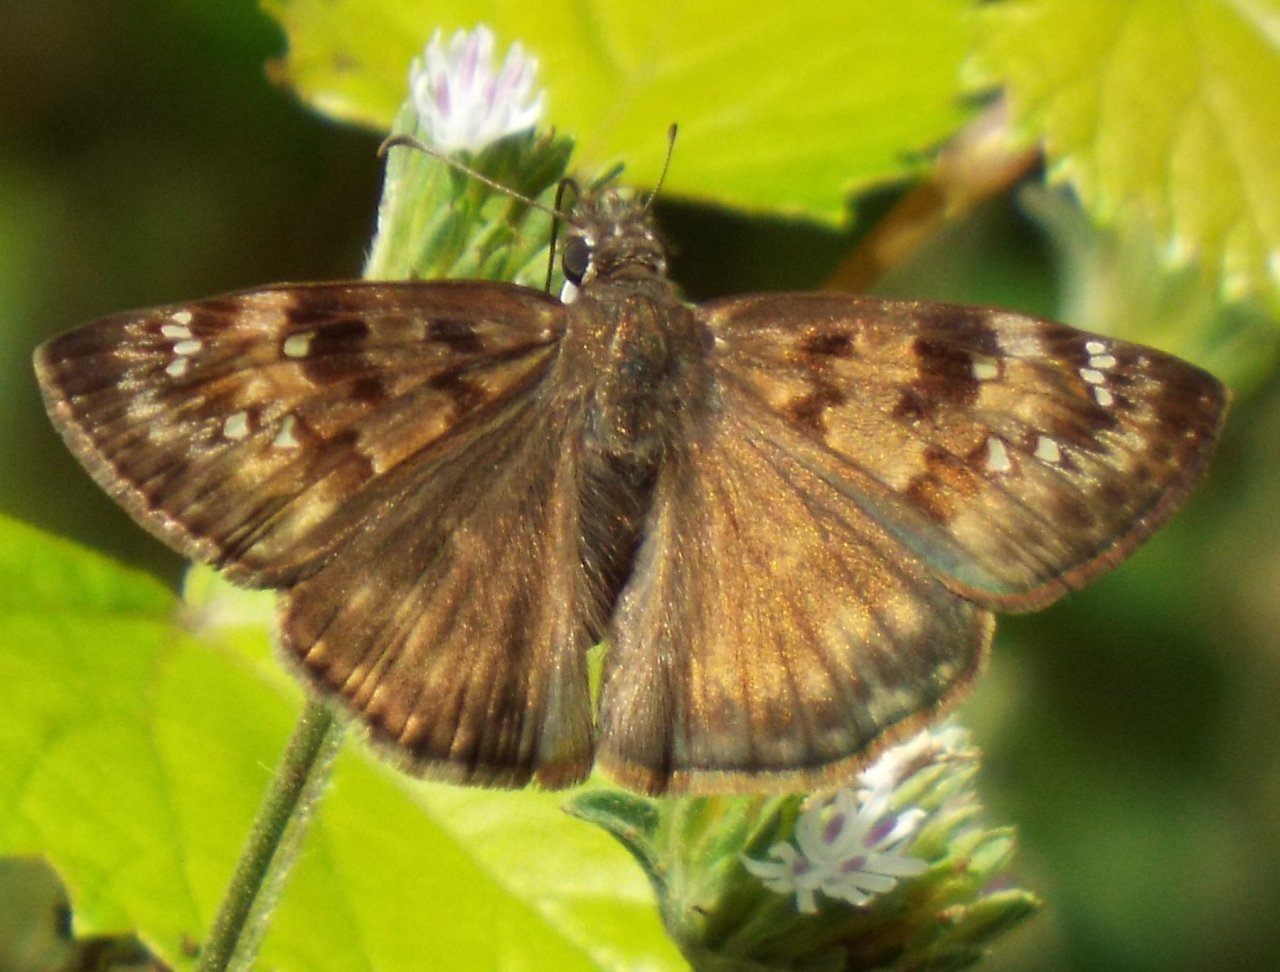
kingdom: Animalia
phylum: Arthropoda
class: Insecta
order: Lepidoptera
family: Hesperiidae
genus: Gesta
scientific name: Gesta
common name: Horace's Duskywing
